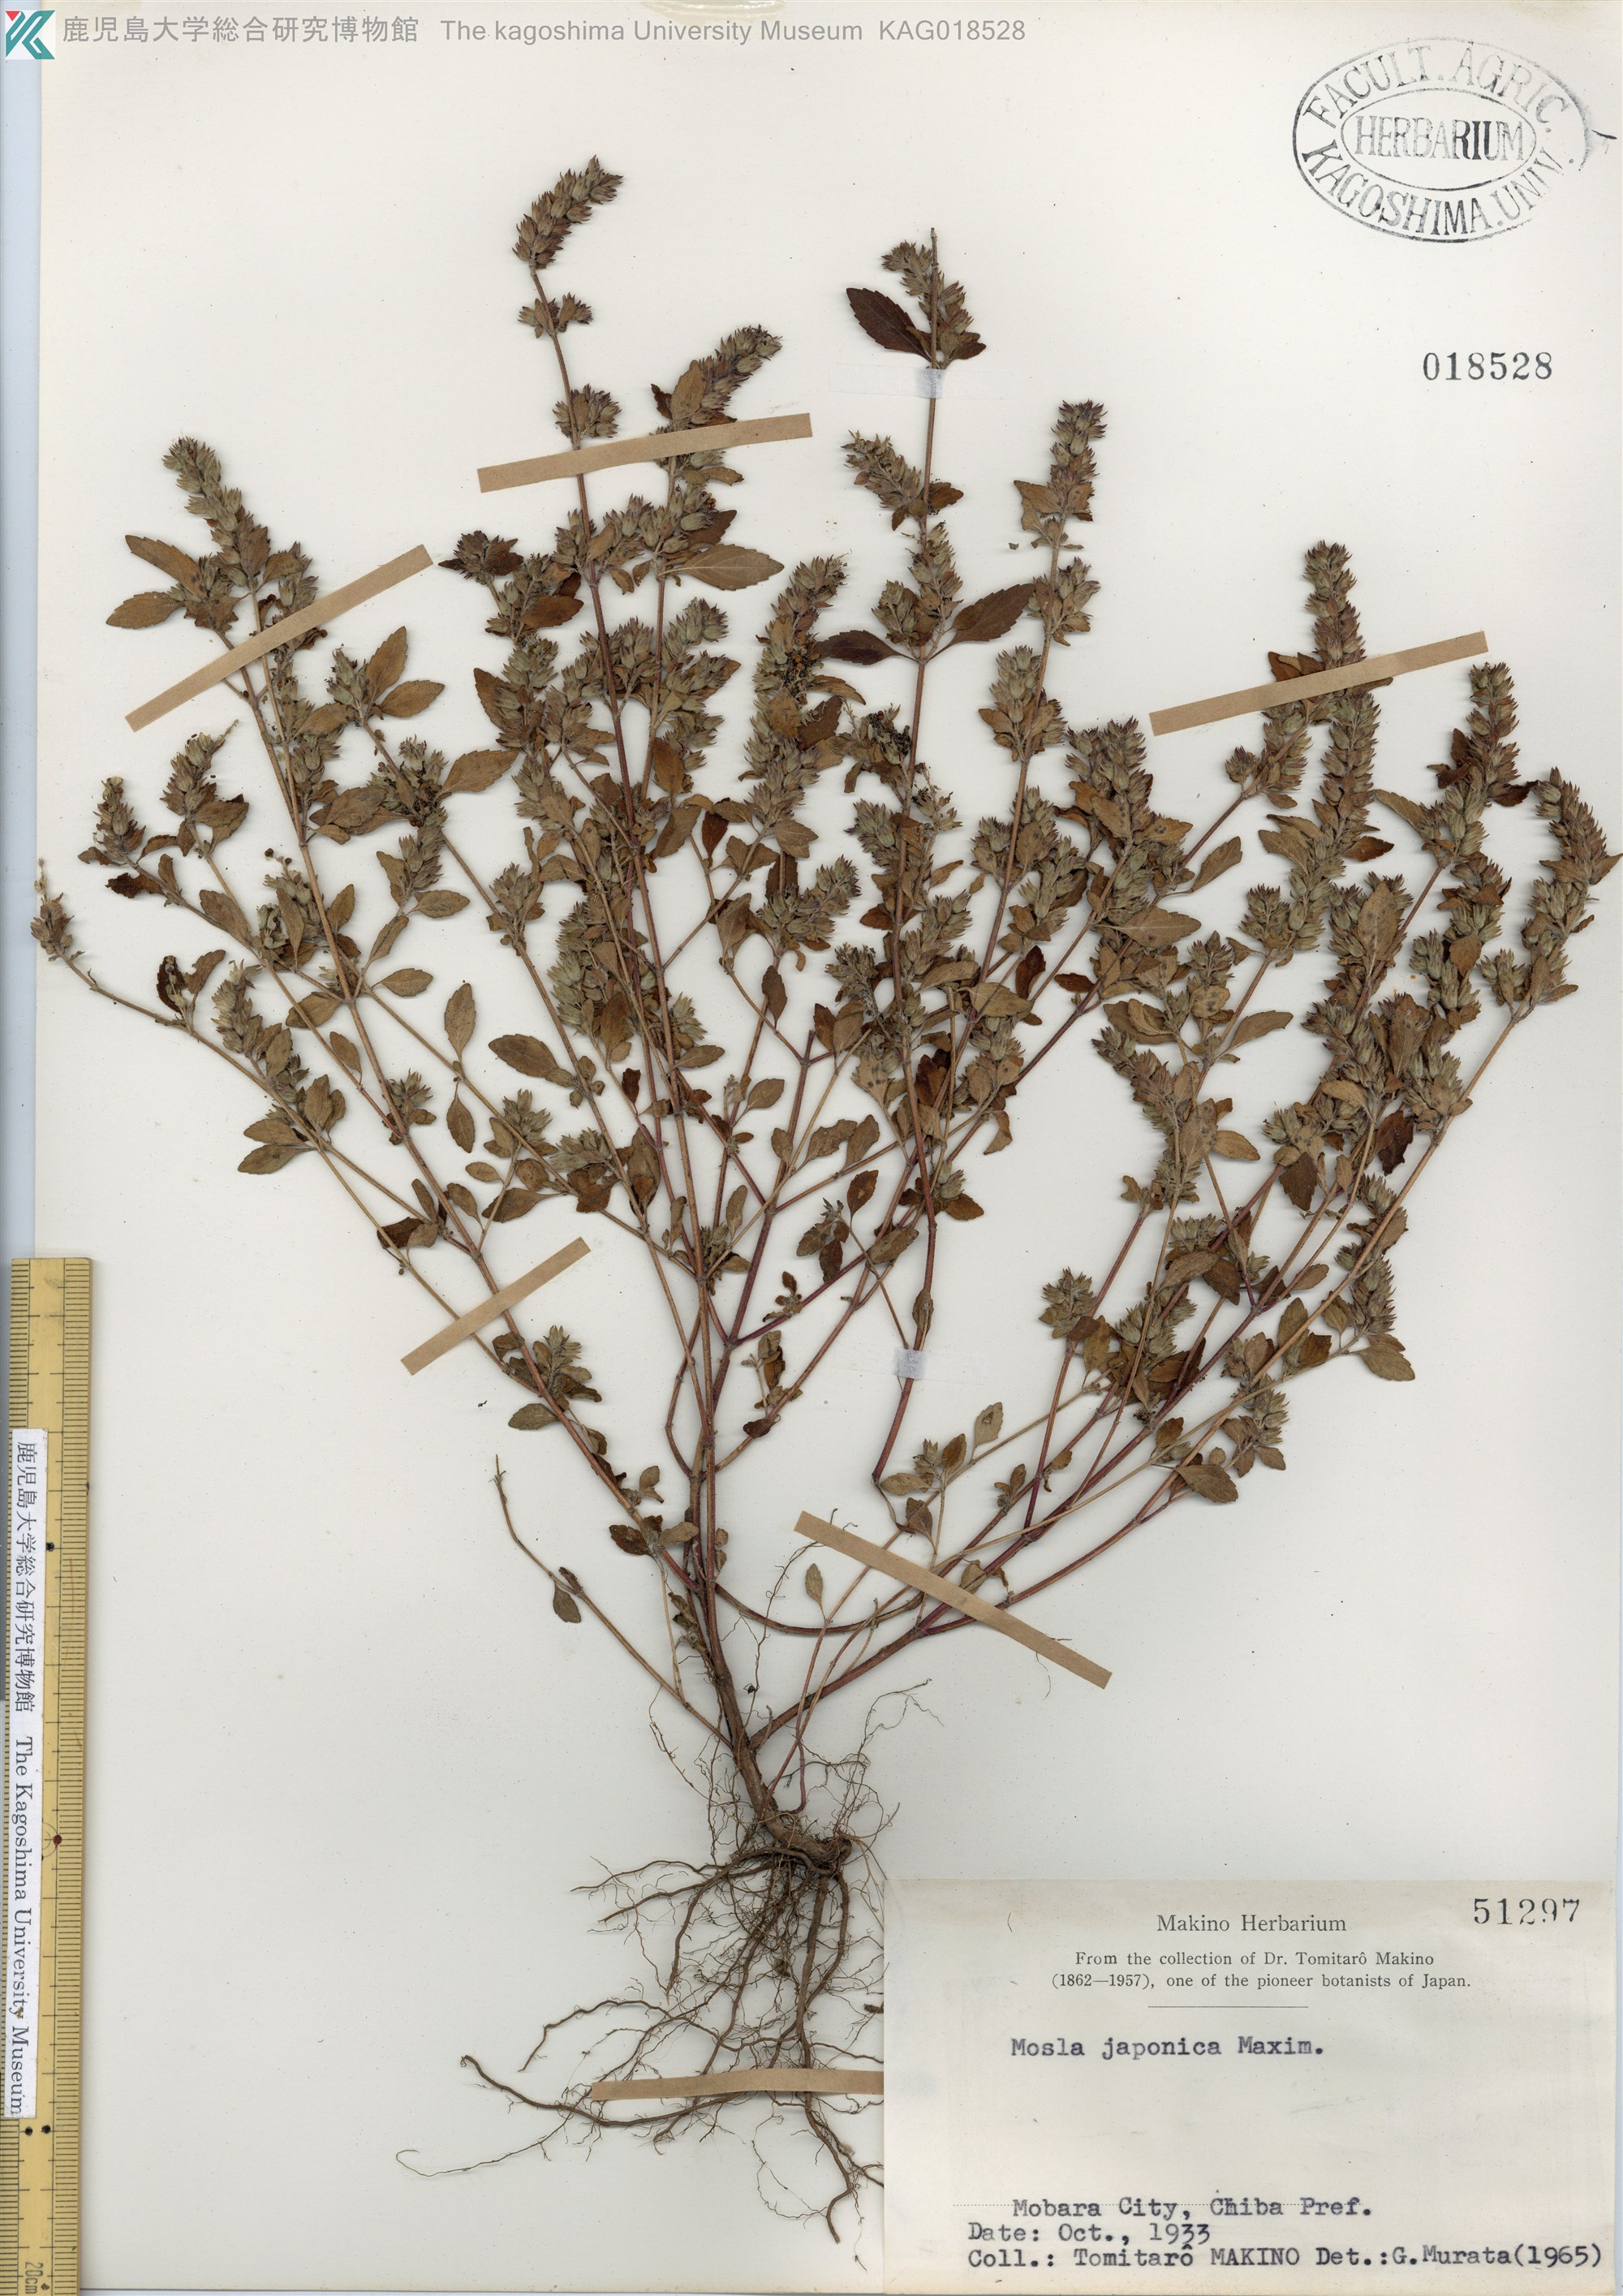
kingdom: Plantae
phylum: Tracheophyta
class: Magnoliopsida
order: Lamiales
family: Lamiaceae
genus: Mosla
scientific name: Mosla japonica
